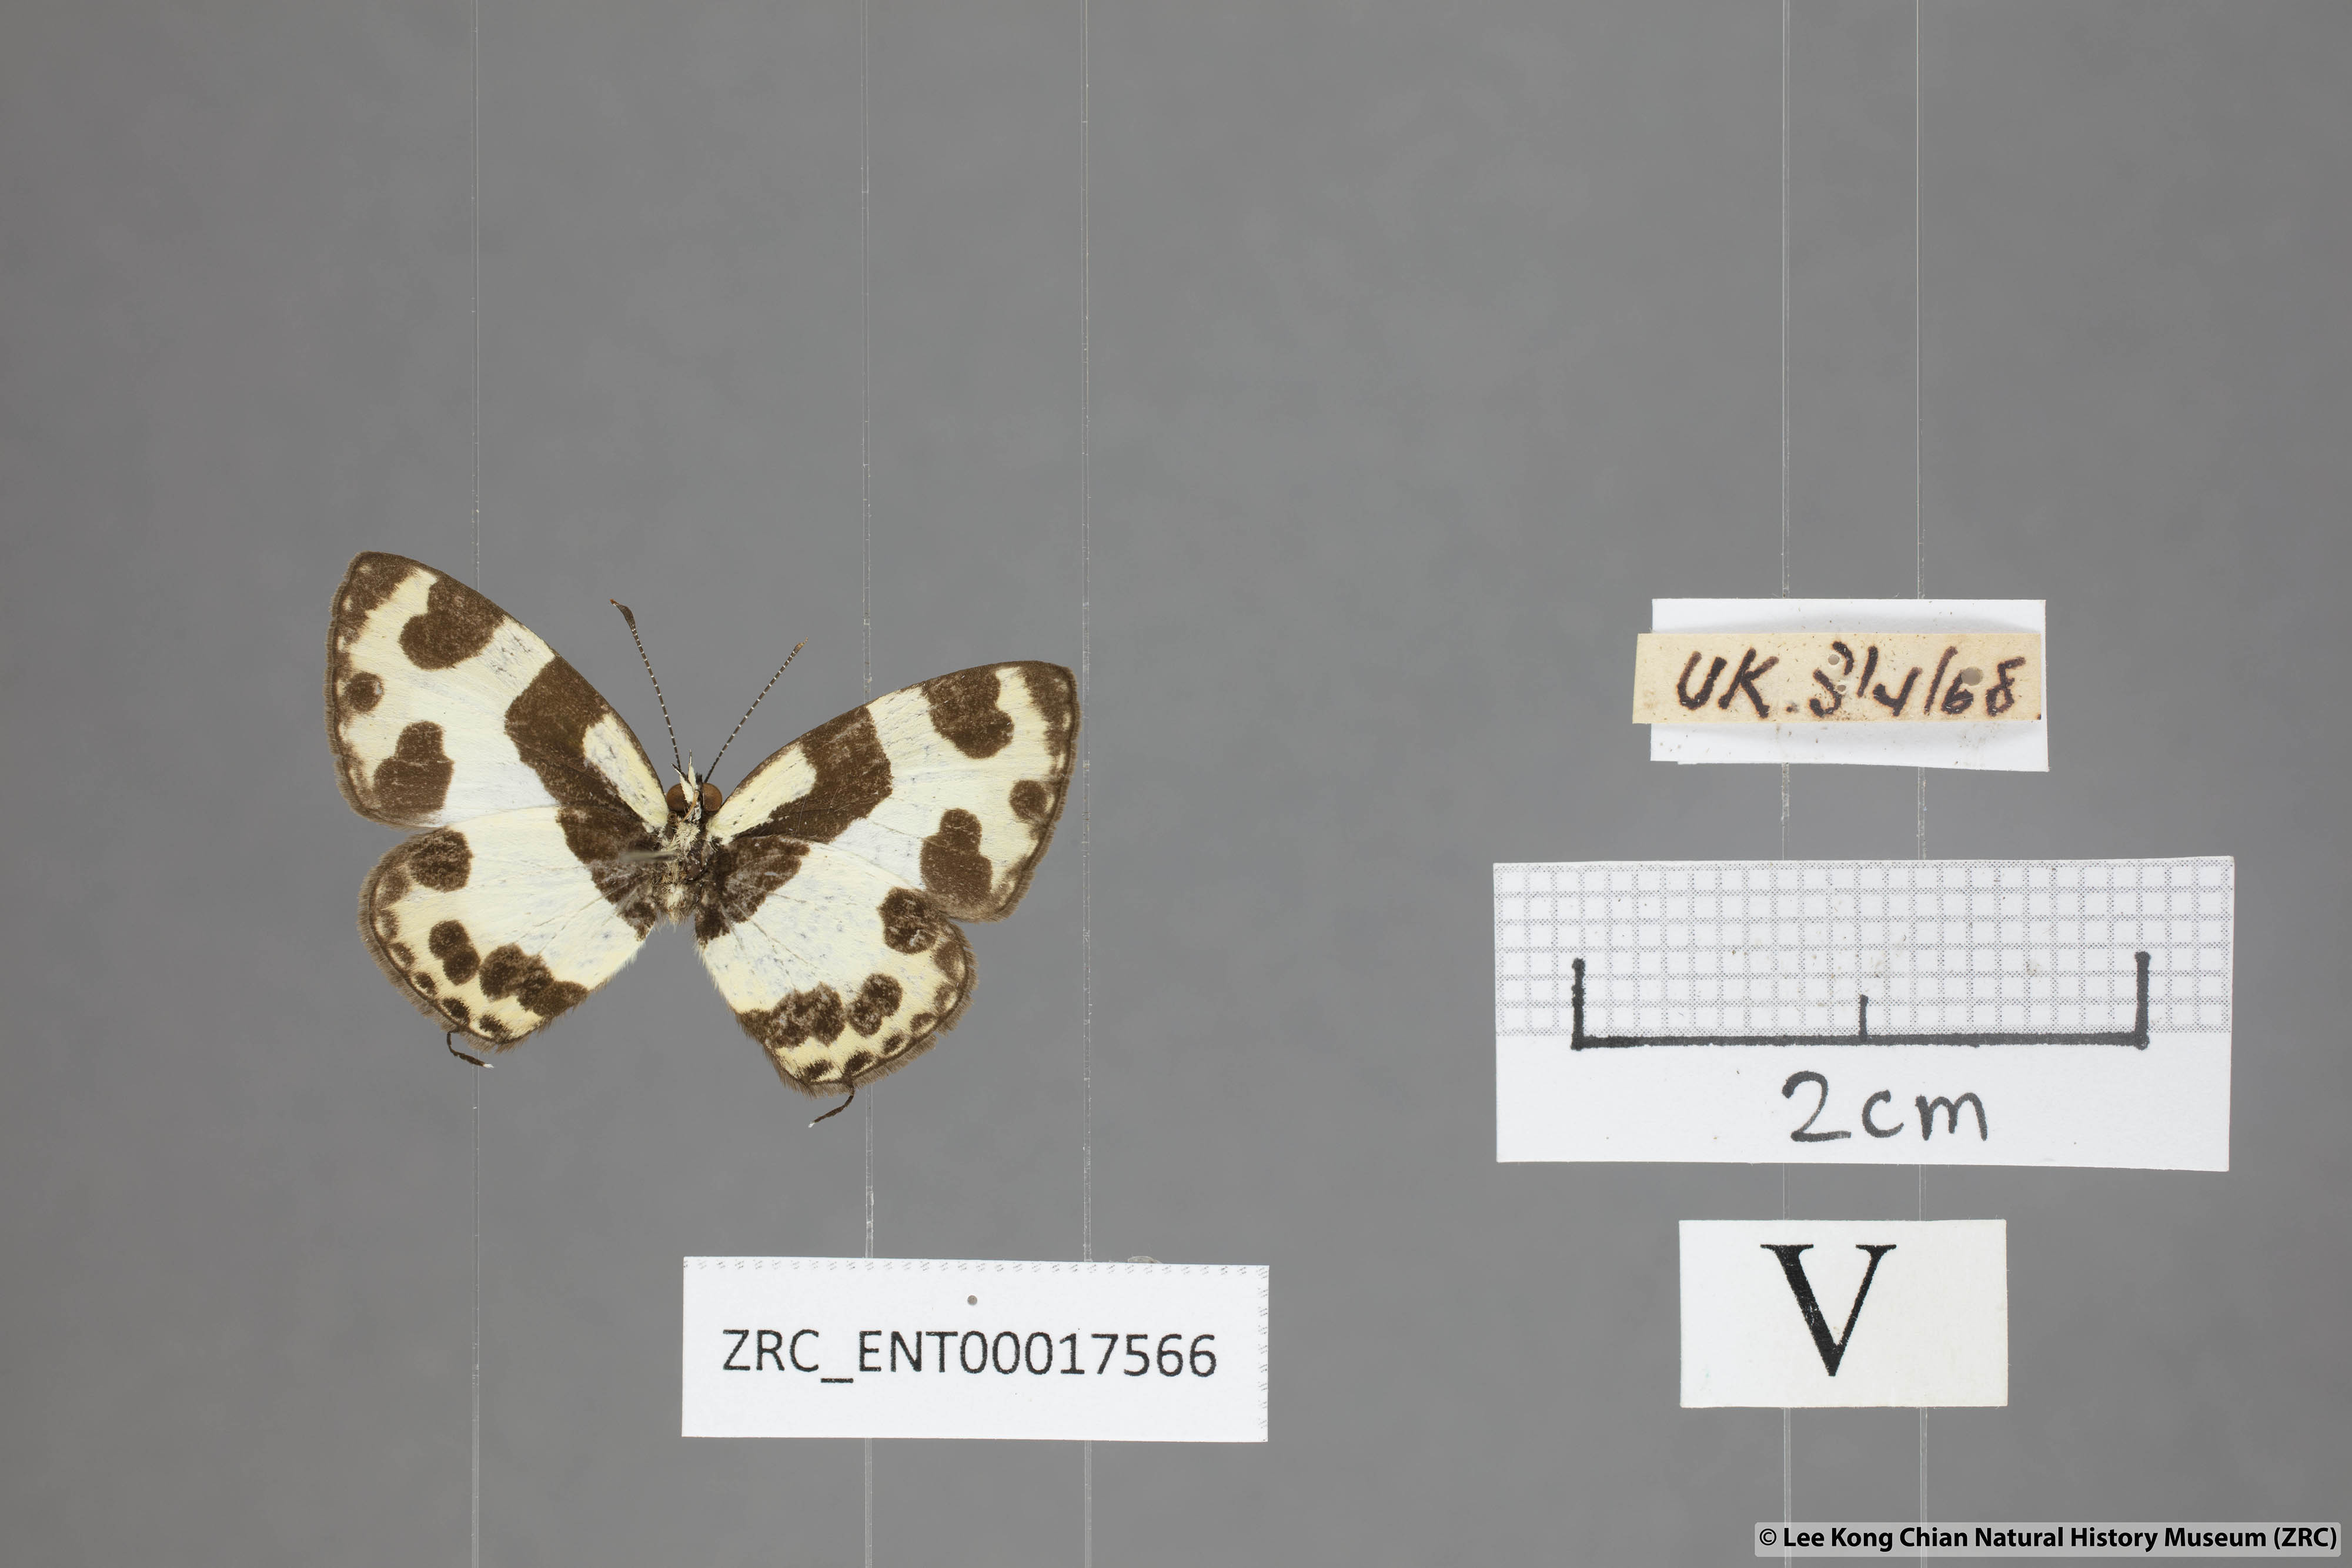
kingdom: Animalia
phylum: Arthropoda
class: Insecta
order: Lepidoptera
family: Lycaenidae
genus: Caleta
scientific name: Caleta elna
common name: Elbowed pierrot
